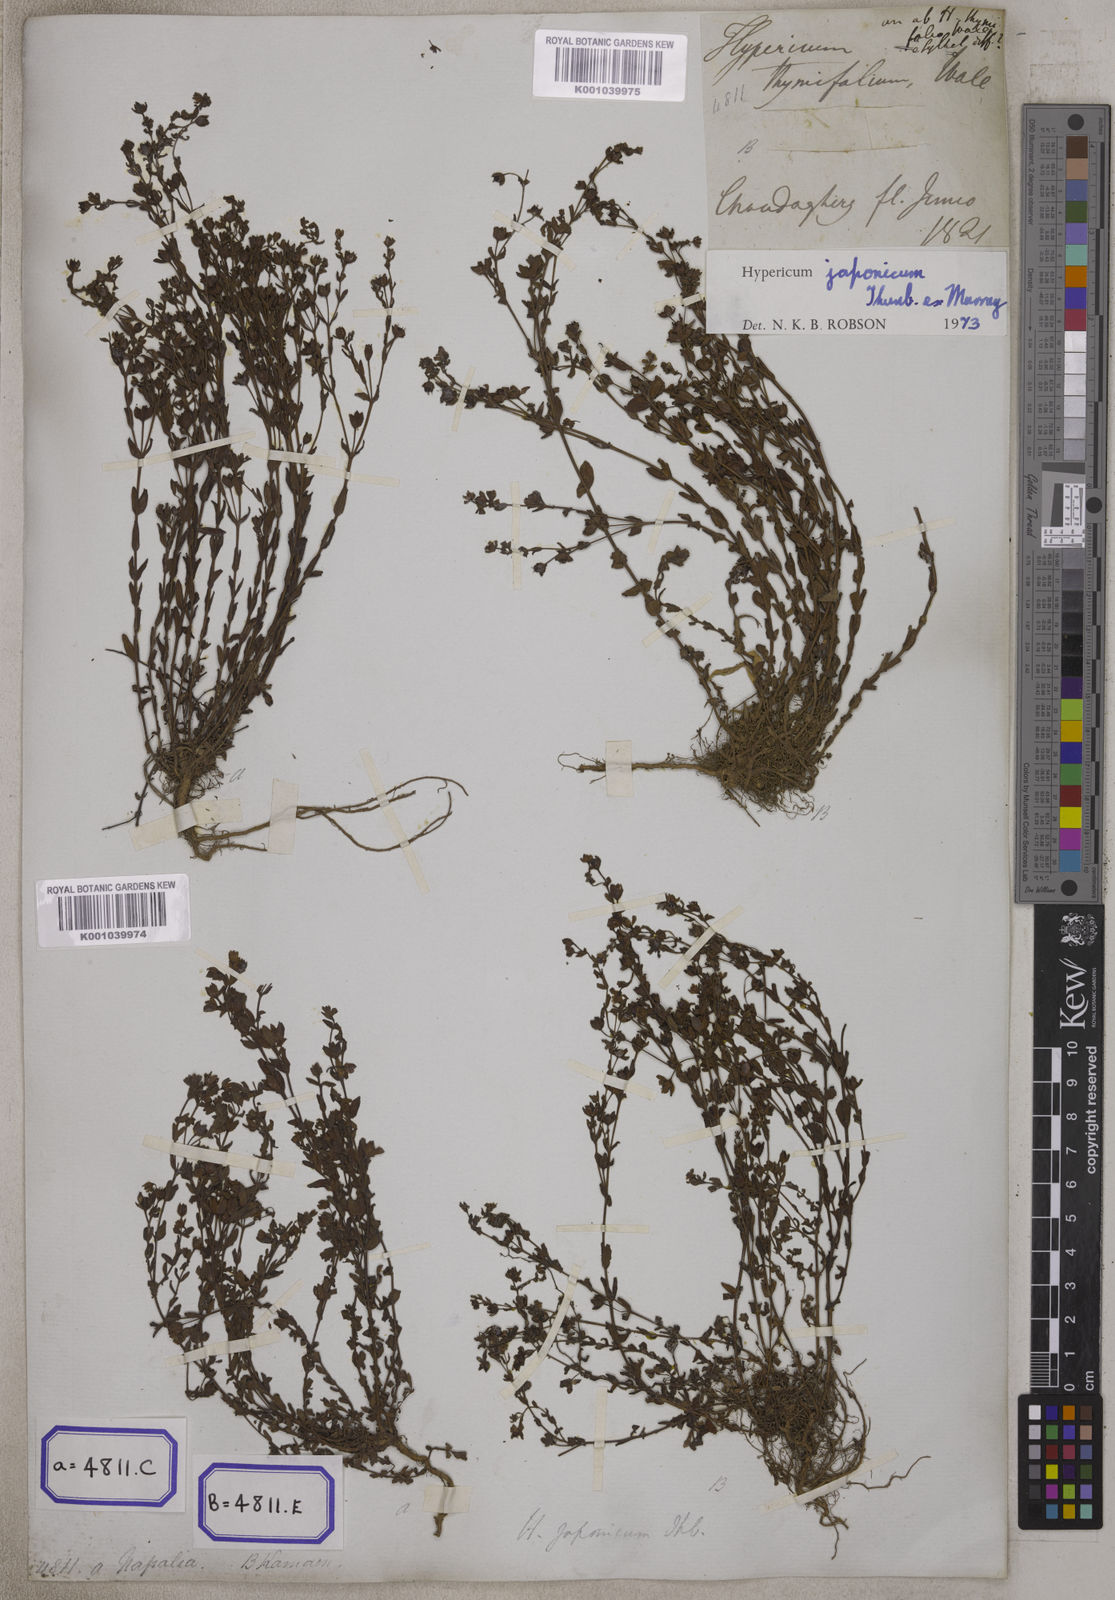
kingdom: Plantae
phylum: Tracheophyta
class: Magnoliopsida
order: Malpighiales
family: Hypericaceae
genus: Hypericum
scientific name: Hypericum japonicum
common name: Matted st. john's-wort
